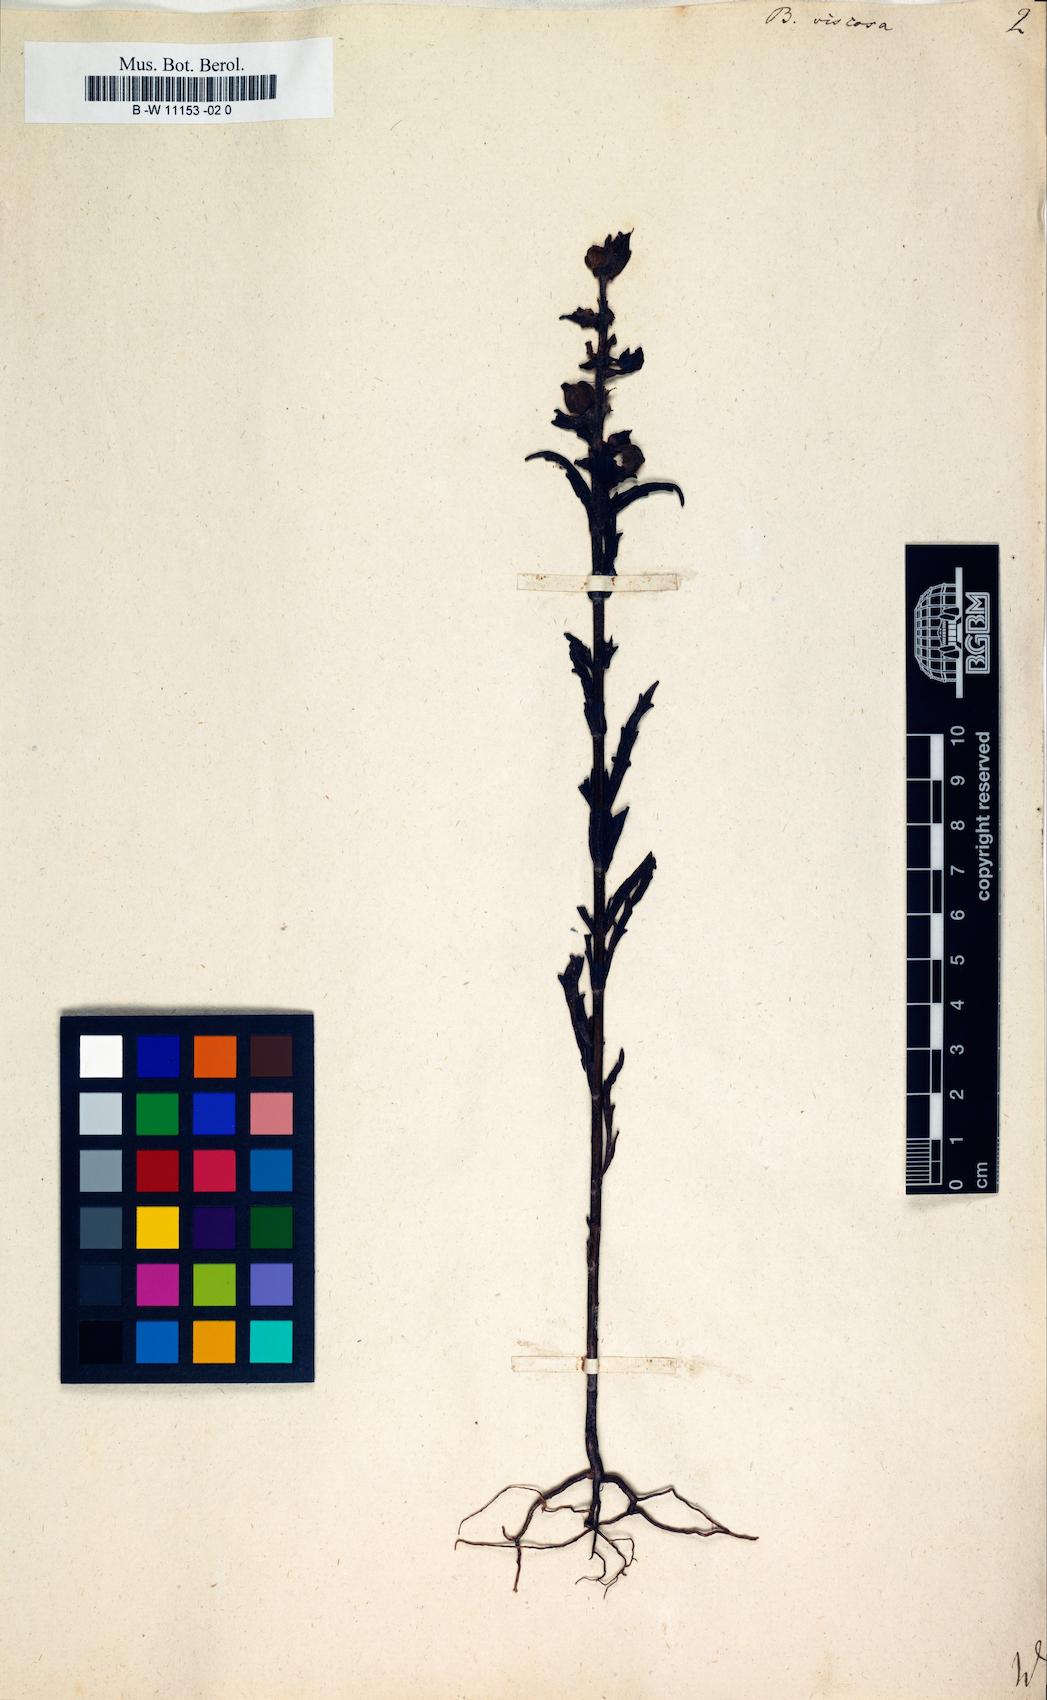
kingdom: Plantae
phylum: Tracheophyta
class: Magnoliopsida
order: Lamiales
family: Orobanchaceae
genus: Bellardia
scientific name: Bellardia viscosa
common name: Sticky parentucellia
